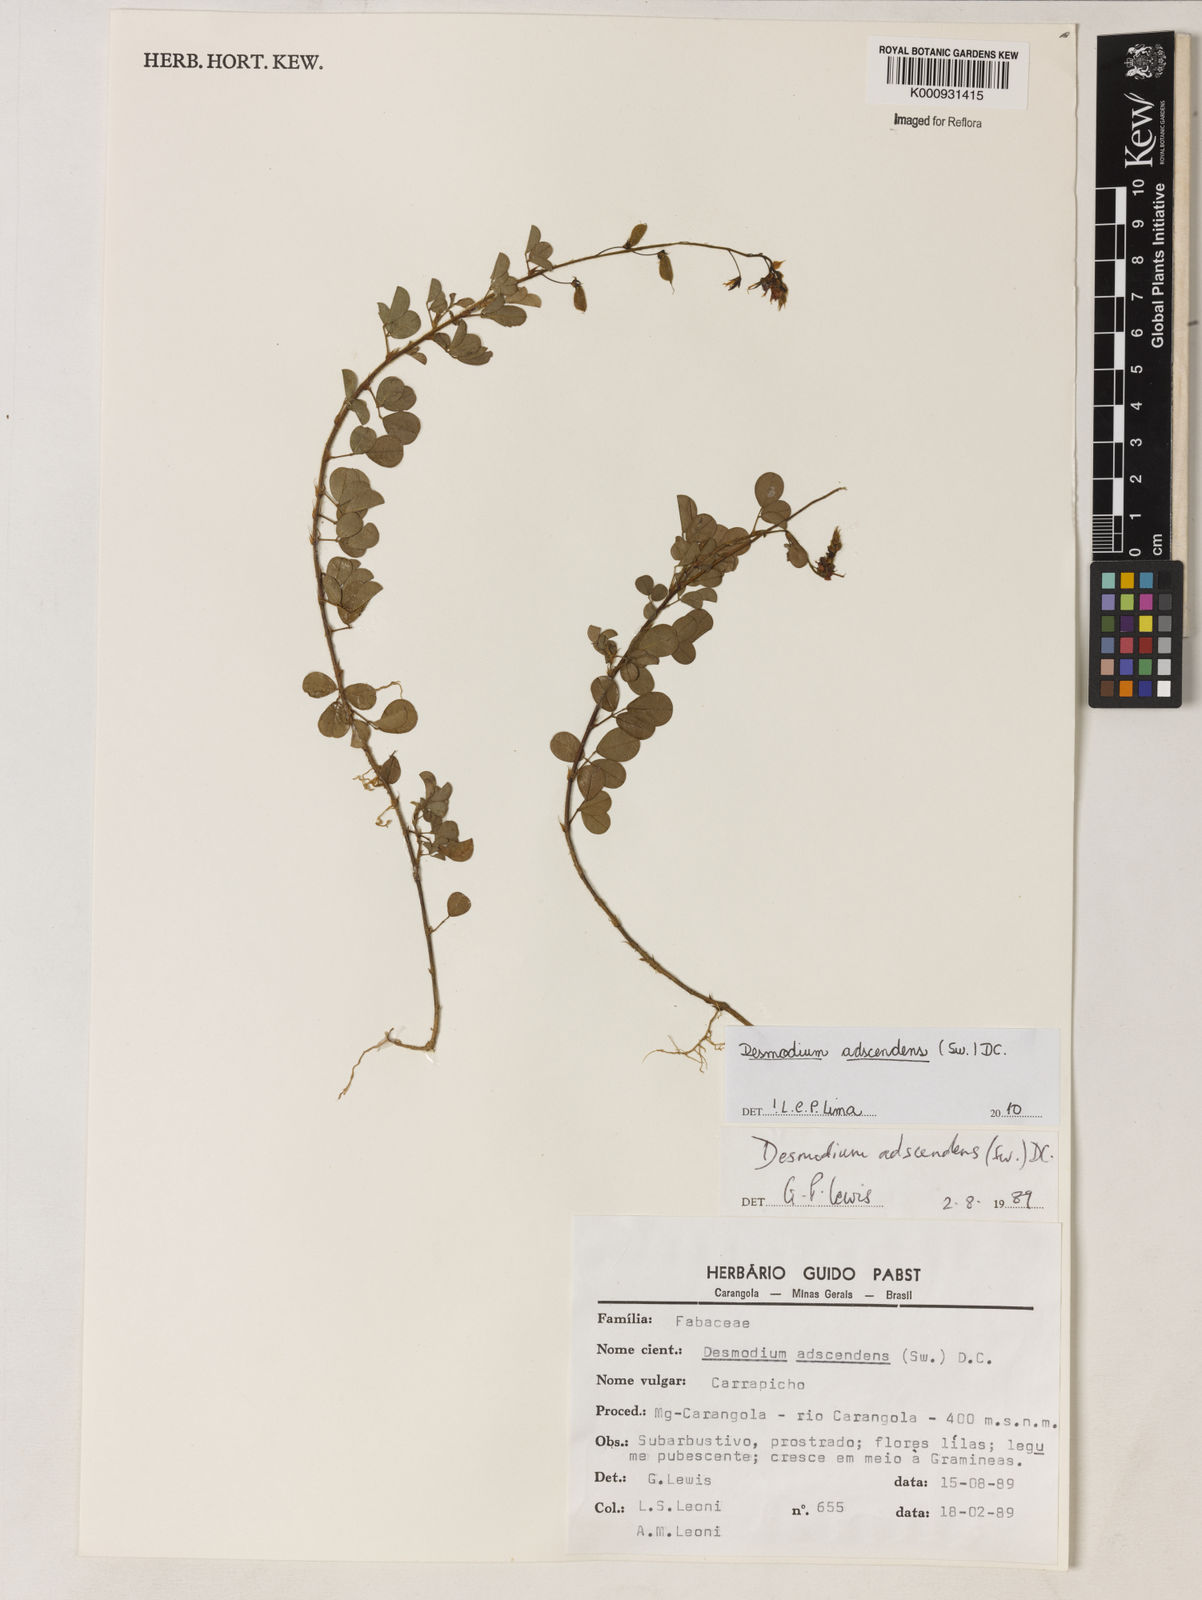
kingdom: Plantae
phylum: Tracheophyta
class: Magnoliopsida
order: Fabales
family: Fabaceae
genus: Grona
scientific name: Grona adscendens
